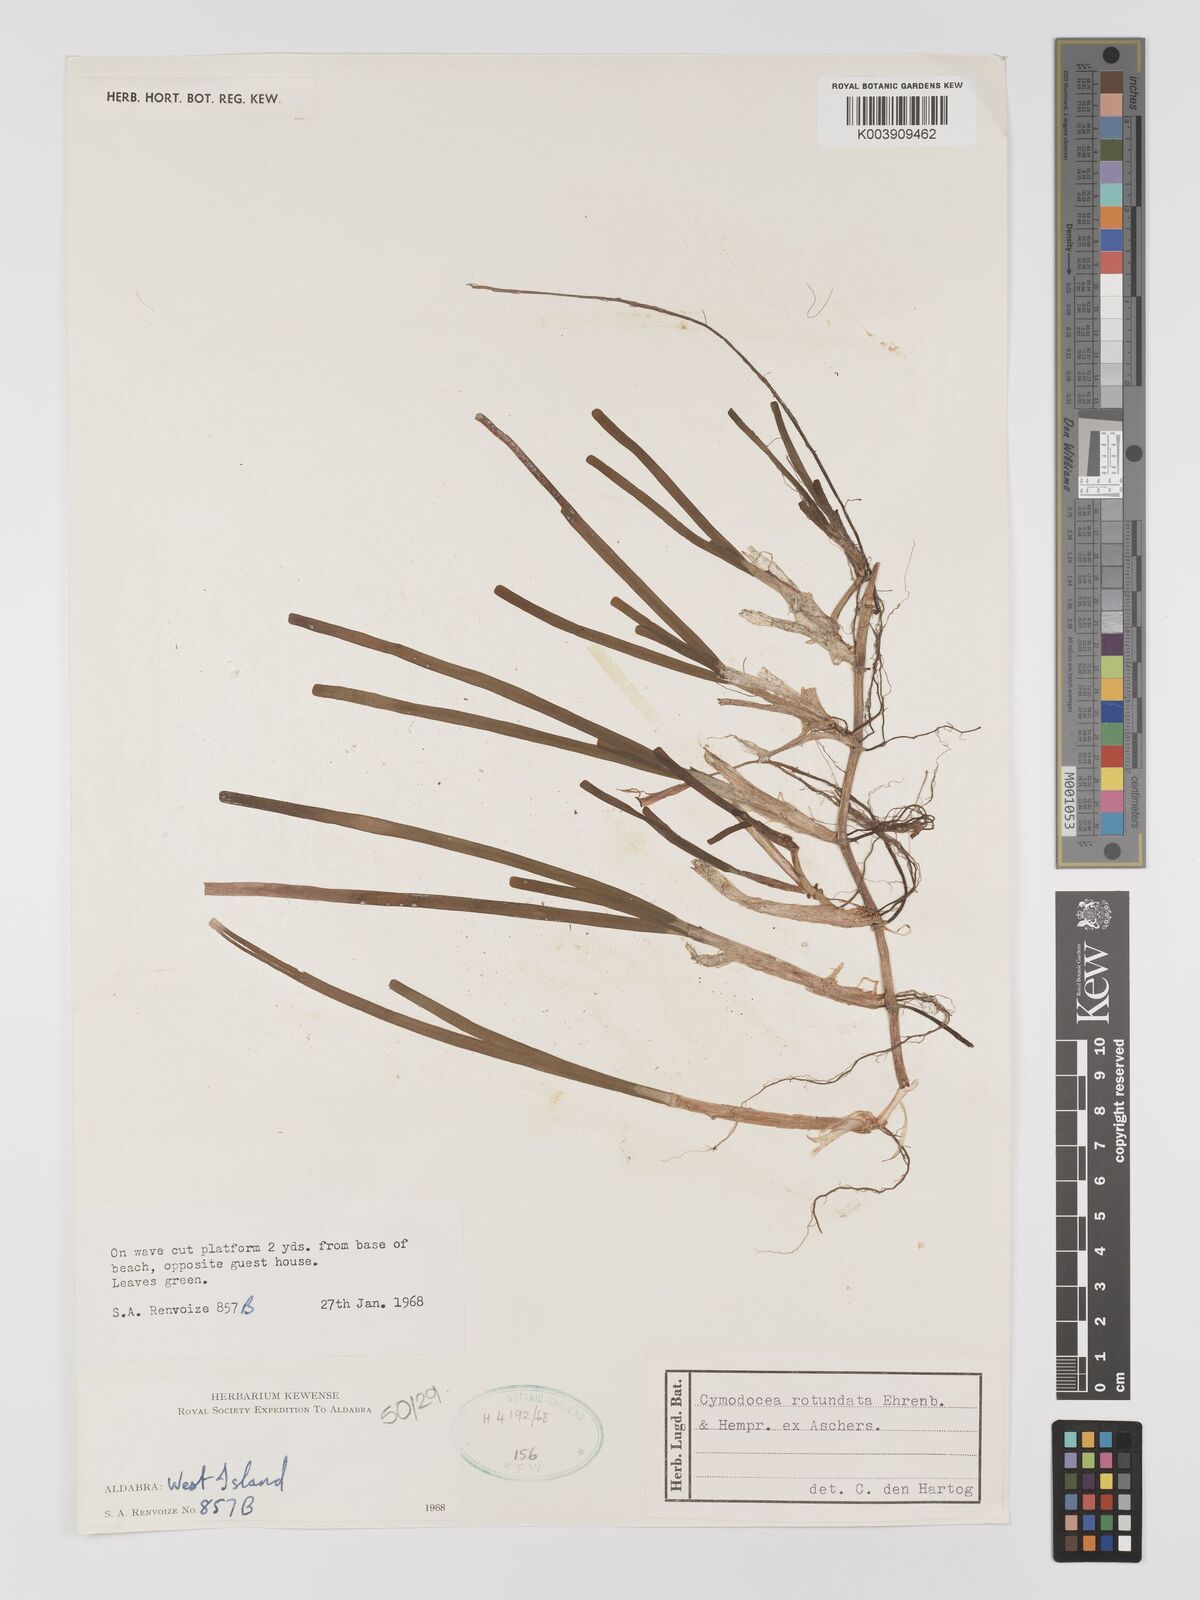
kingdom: Plantae
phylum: Tracheophyta
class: Liliopsida
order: Alismatales
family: Cymodoceaceae
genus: Cymodocea
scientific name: Cymodocea rotundata
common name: Species code: cr
